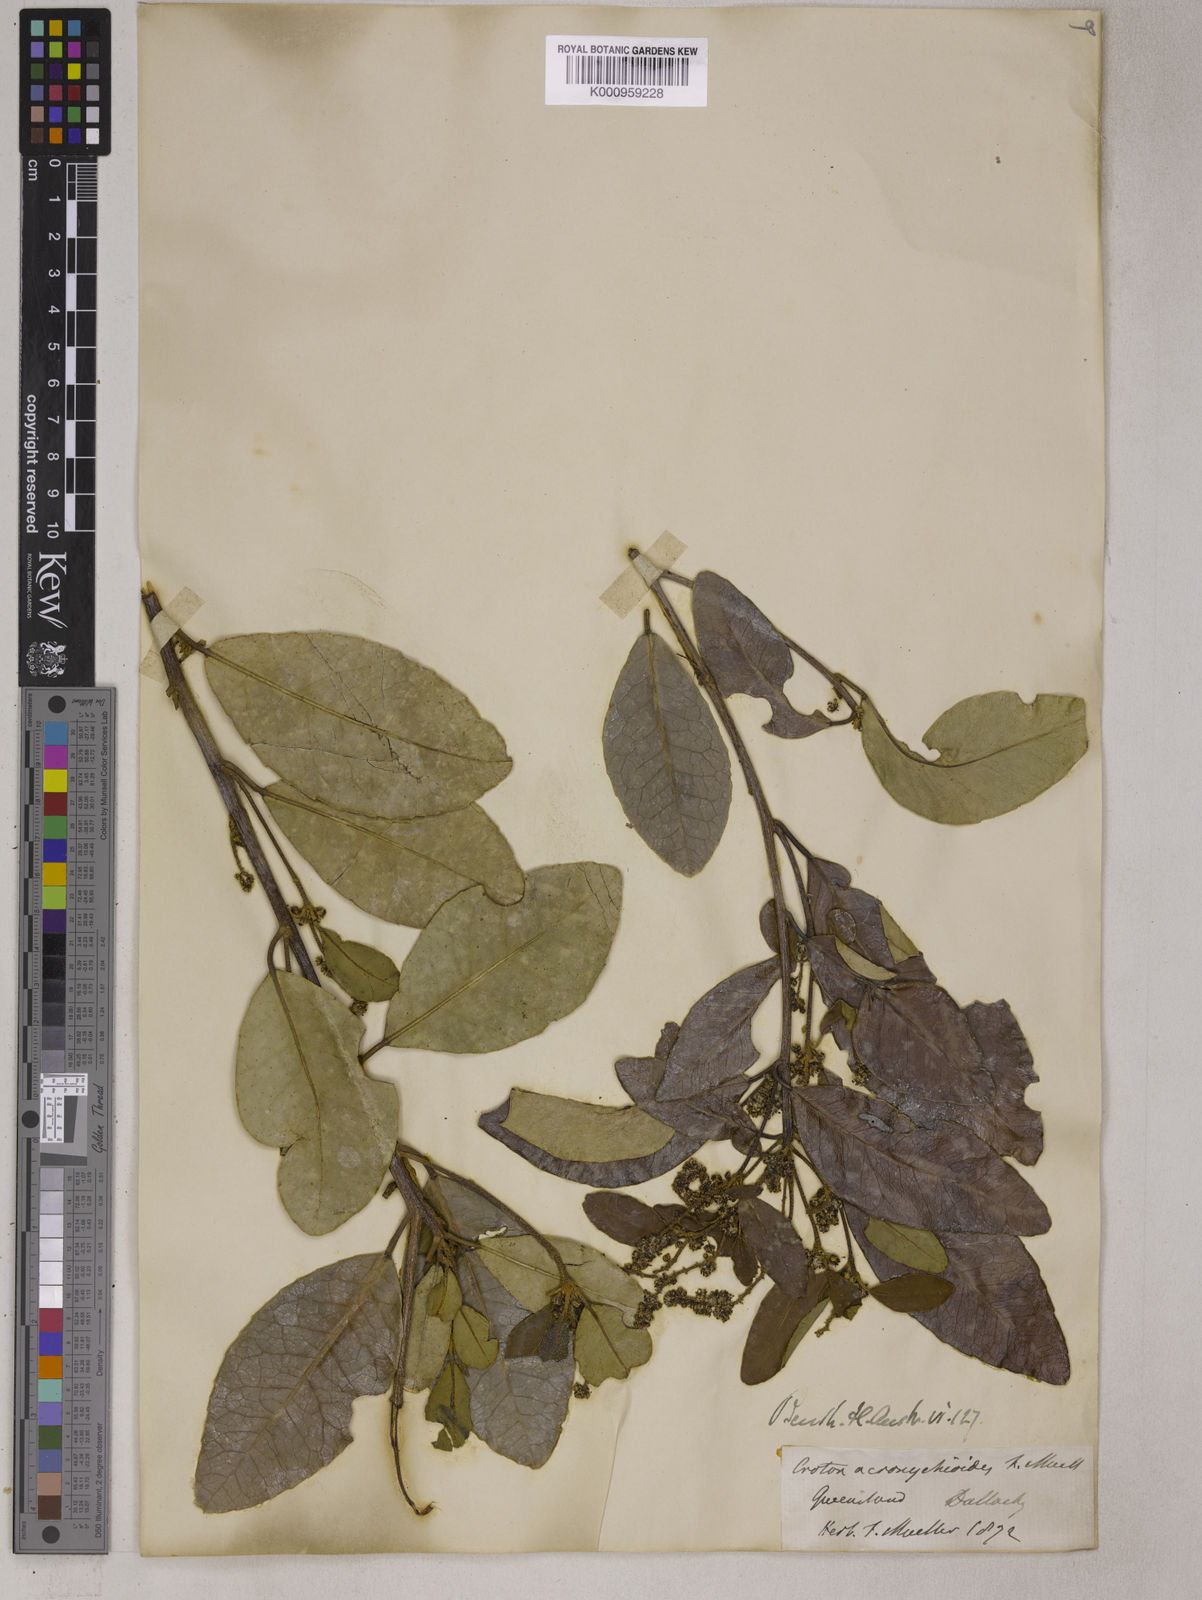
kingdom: Plantae
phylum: Tracheophyta
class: Magnoliopsida
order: Malpighiales
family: Euphorbiaceae
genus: Croton
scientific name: Croton acronychioides
